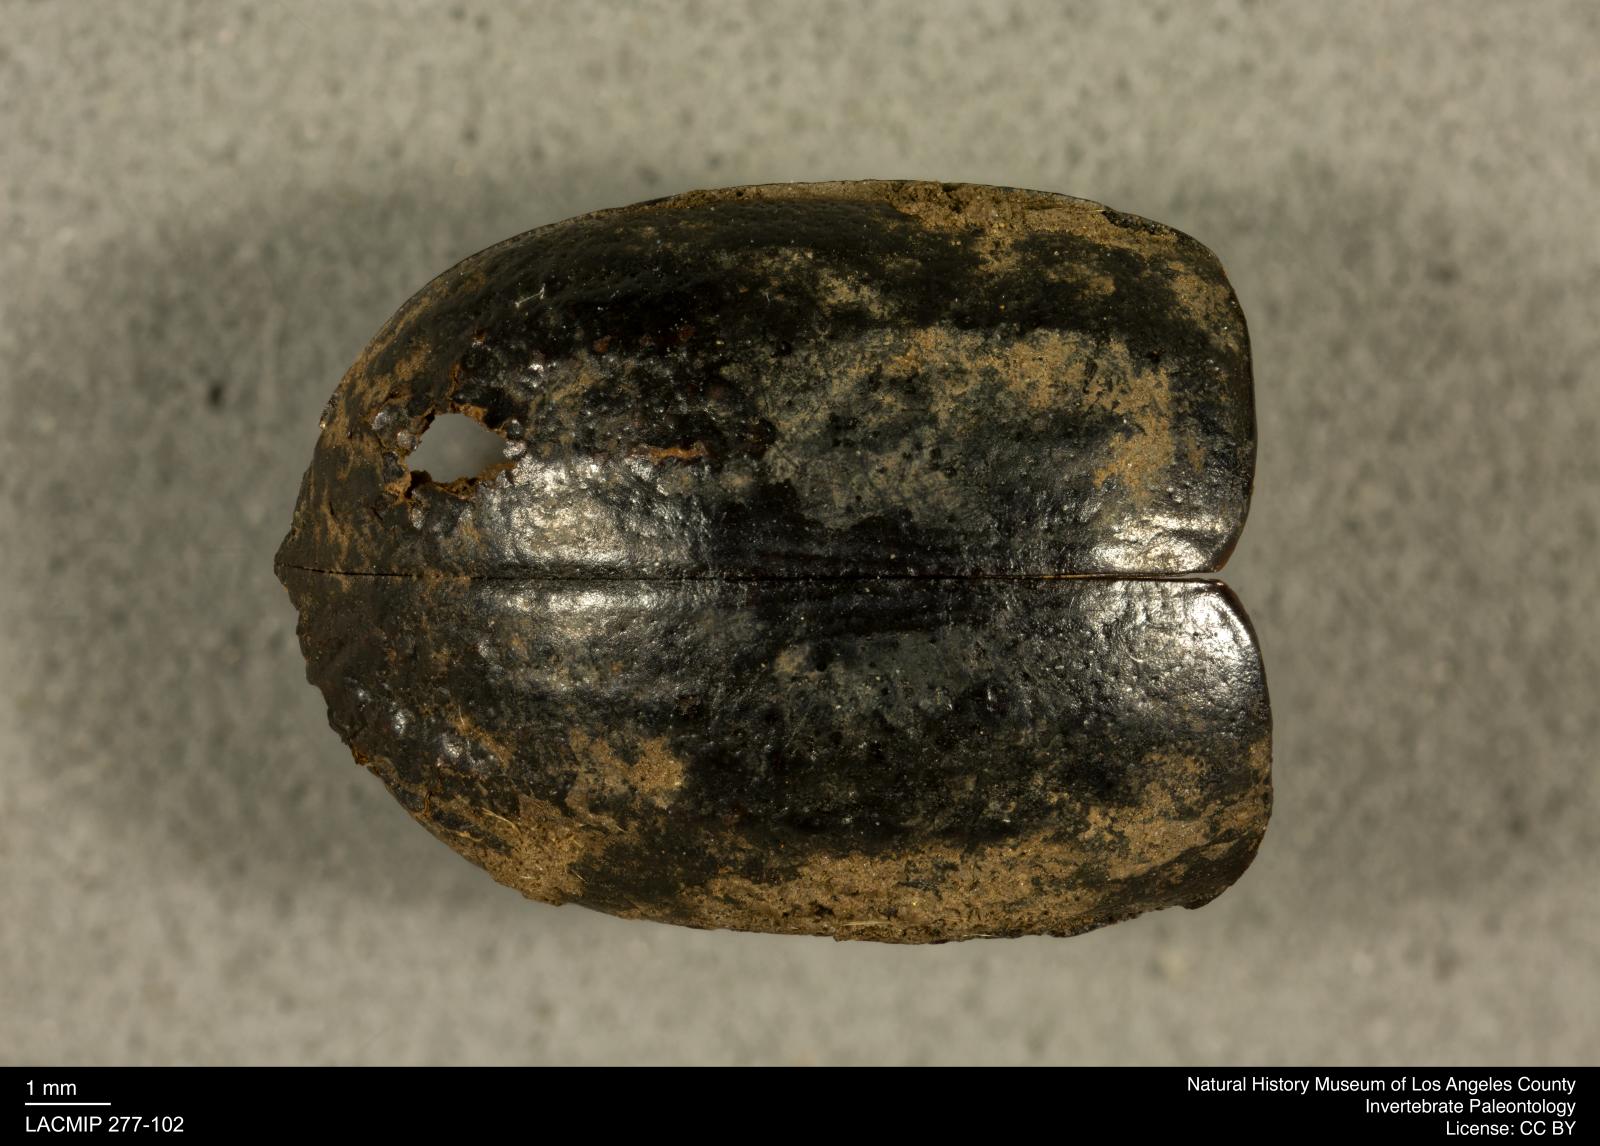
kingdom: Animalia
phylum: Arthropoda
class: Insecta
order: Coleoptera
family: Tenebrionidae
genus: Coniontis
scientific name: Coniontis abdominalis
